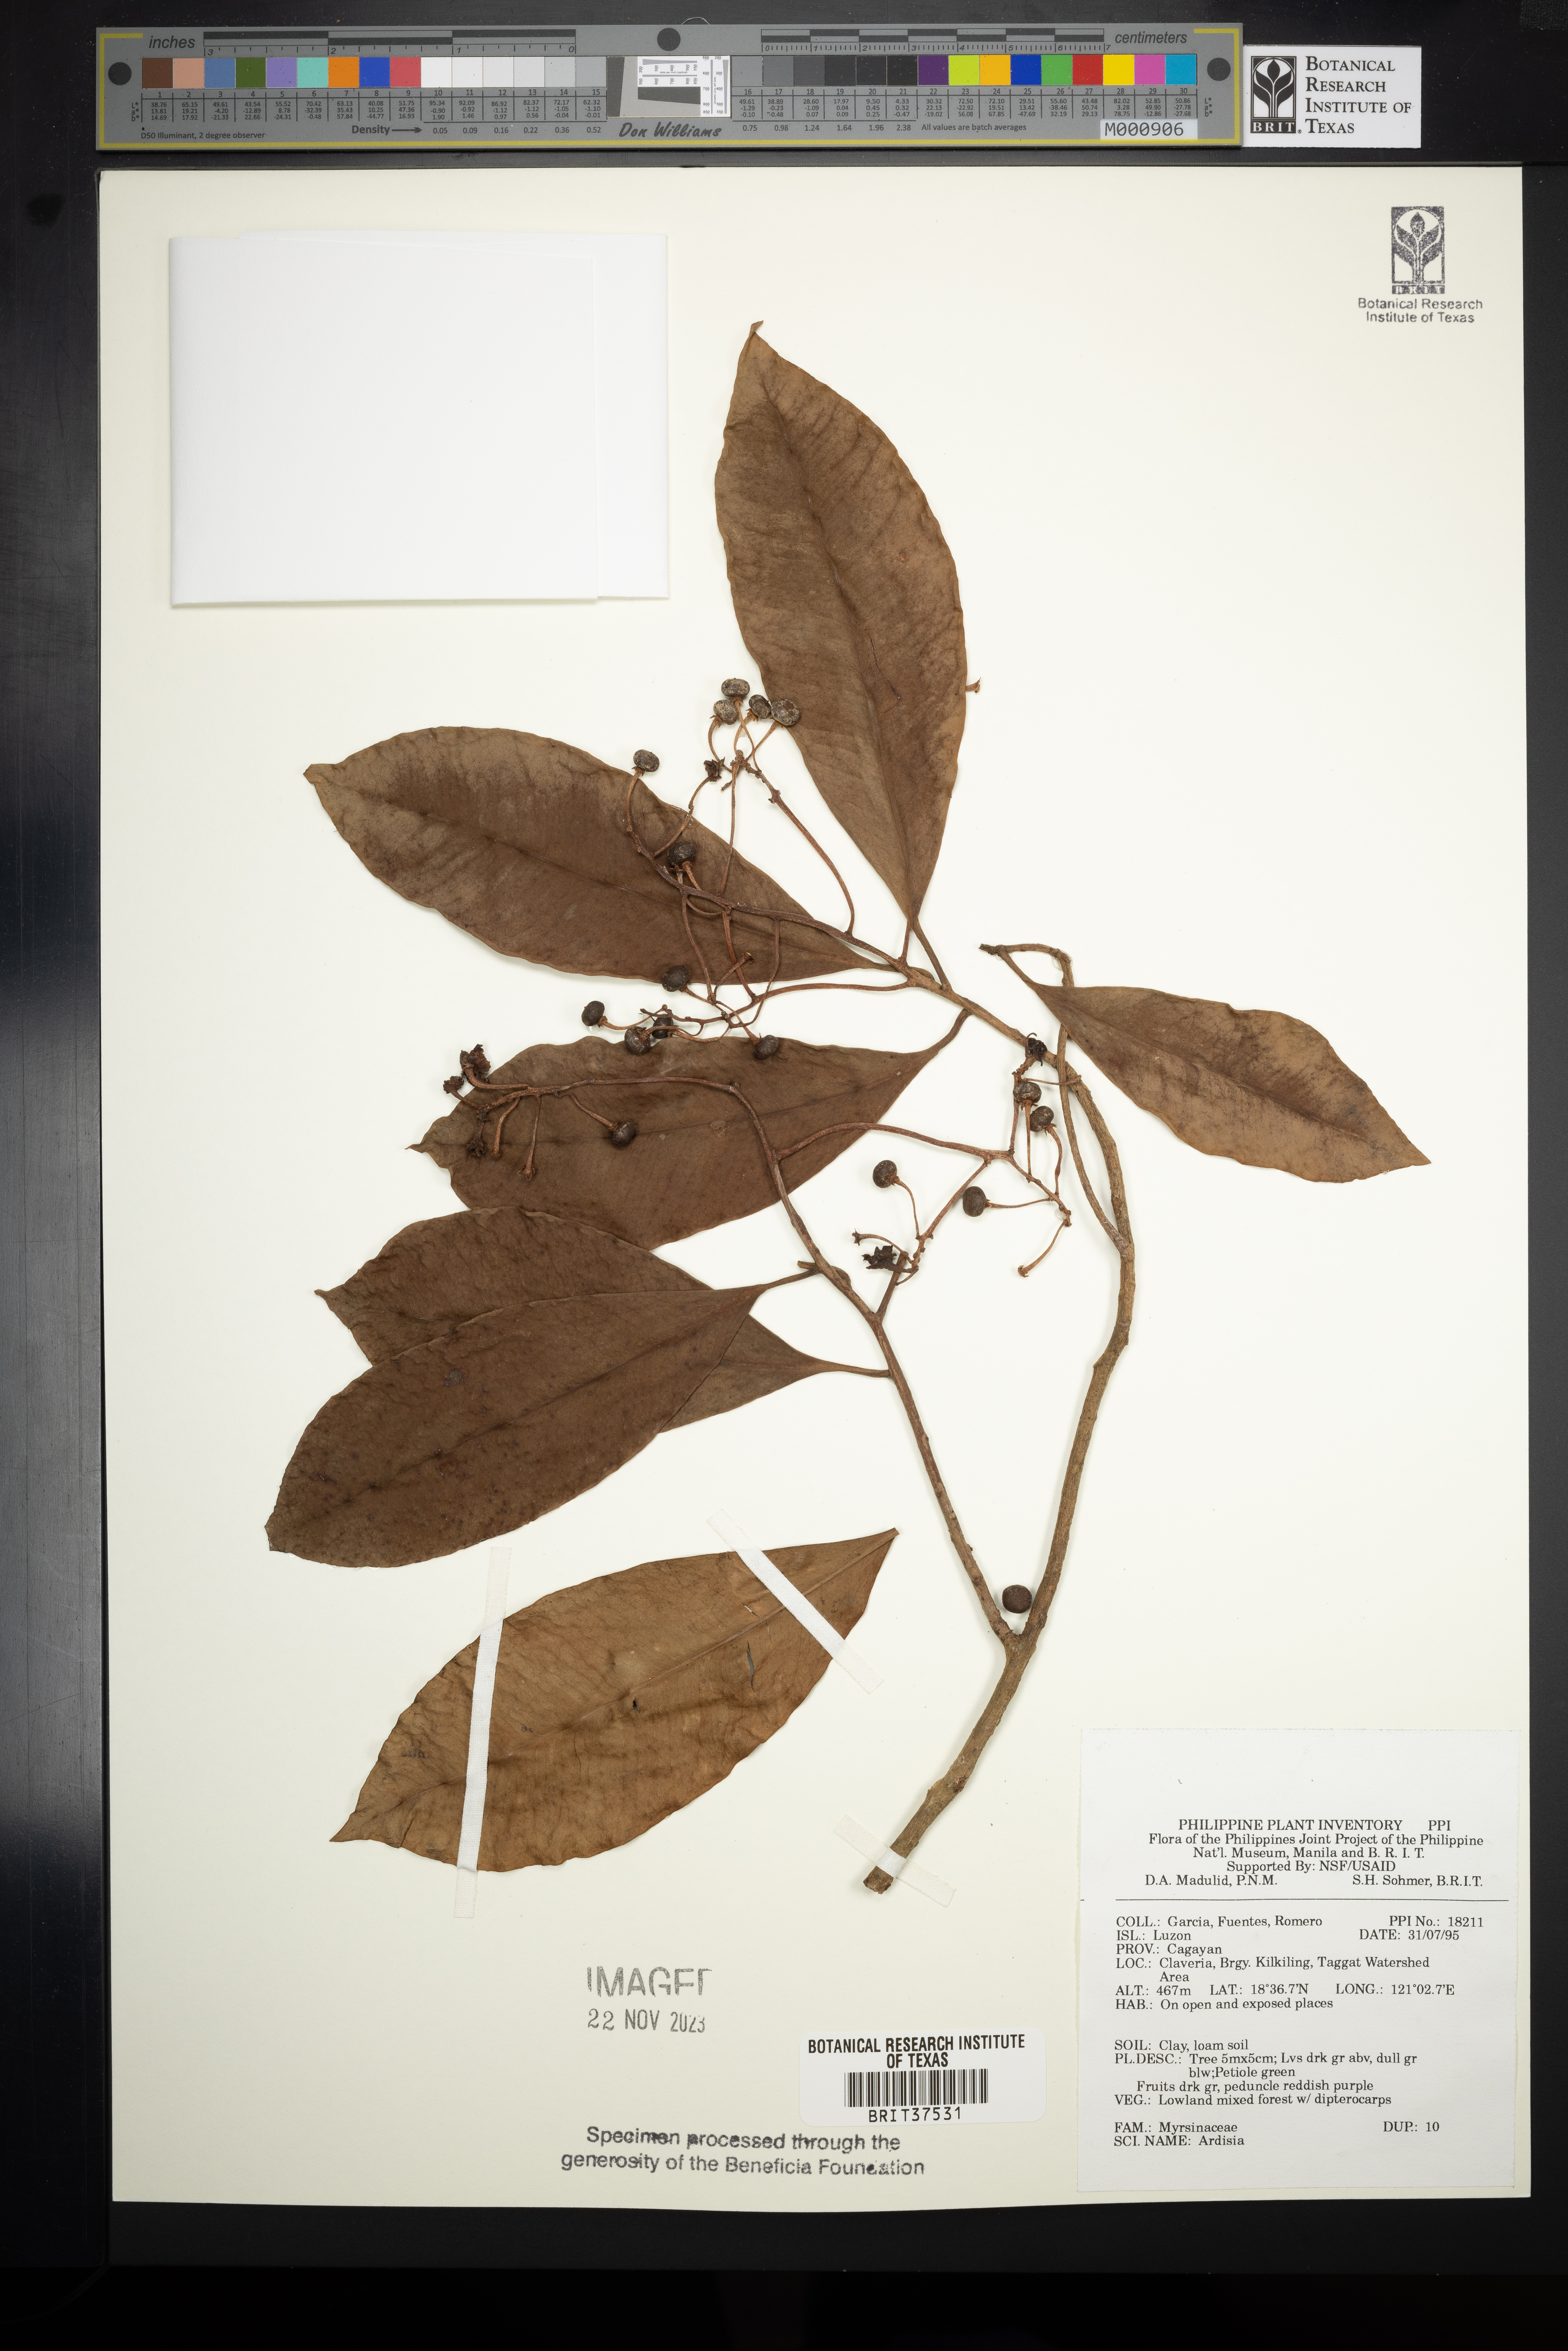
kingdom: Plantae
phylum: Tracheophyta
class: Magnoliopsida
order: Ericales
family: Primulaceae
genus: Ardisia
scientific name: Ardisia
